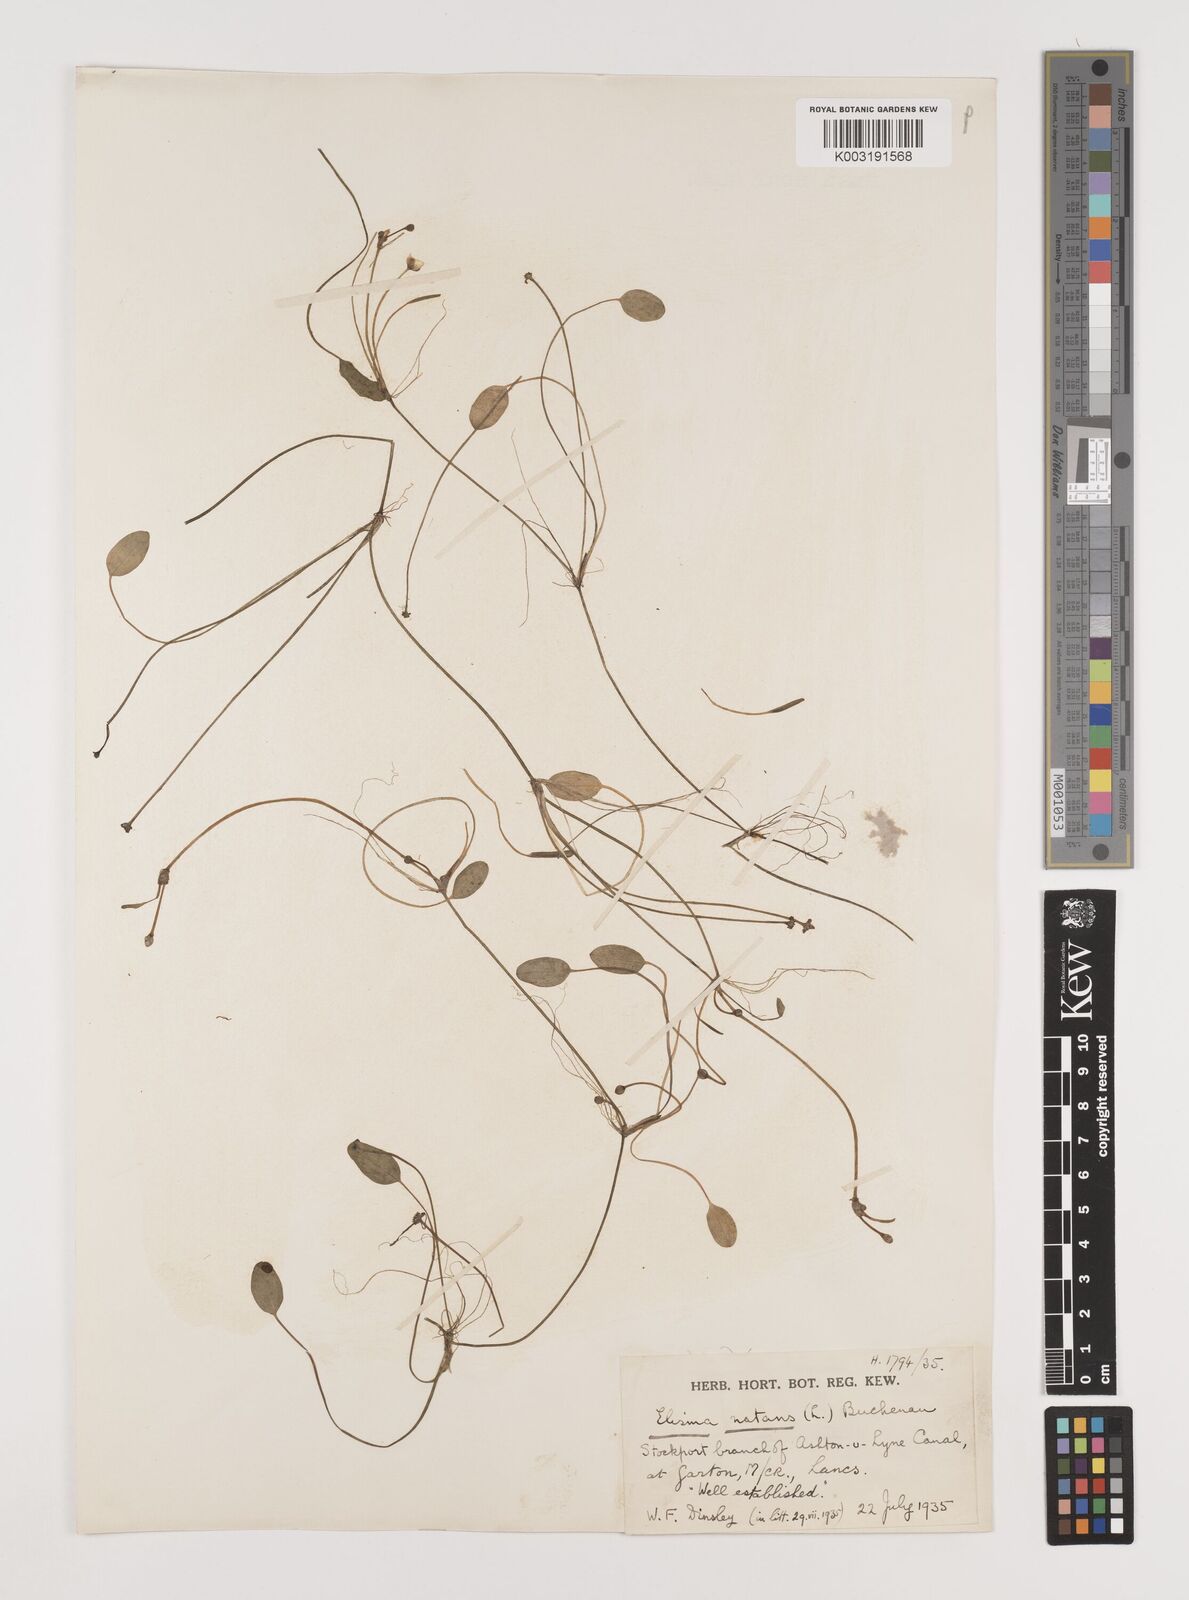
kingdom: Plantae
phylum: Tracheophyta
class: Liliopsida
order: Alismatales
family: Alismataceae
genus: Luronium
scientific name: Luronium natans
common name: Floating water-plantain
